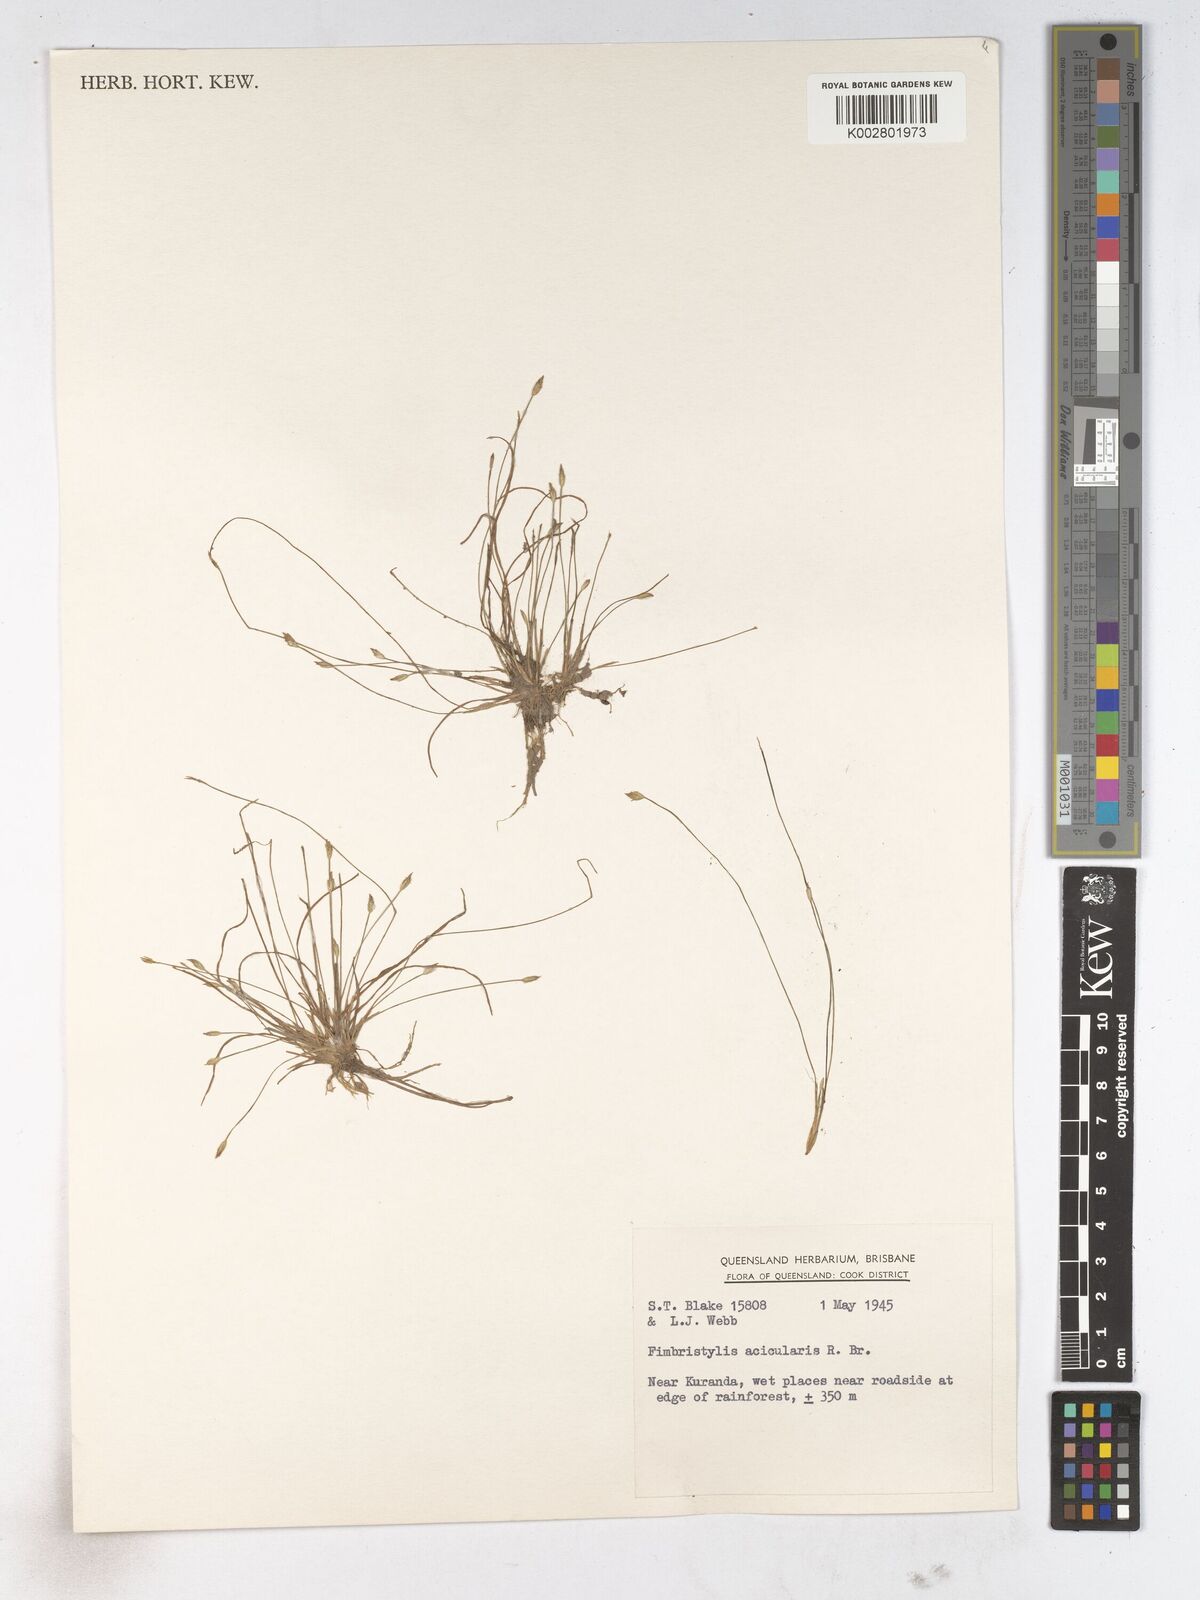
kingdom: Plantae
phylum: Tracheophyta
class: Liliopsida
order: Poales
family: Cyperaceae
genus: Fimbristylis
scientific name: Fimbristylis acicularis
